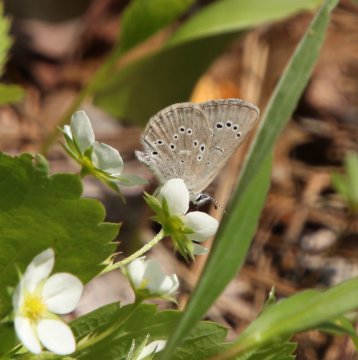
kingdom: Animalia
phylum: Arthropoda
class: Insecta
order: Lepidoptera
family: Lycaenidae
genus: Glaucopsyche
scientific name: Glaucopsyche lygdamus
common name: Silvery Blue
